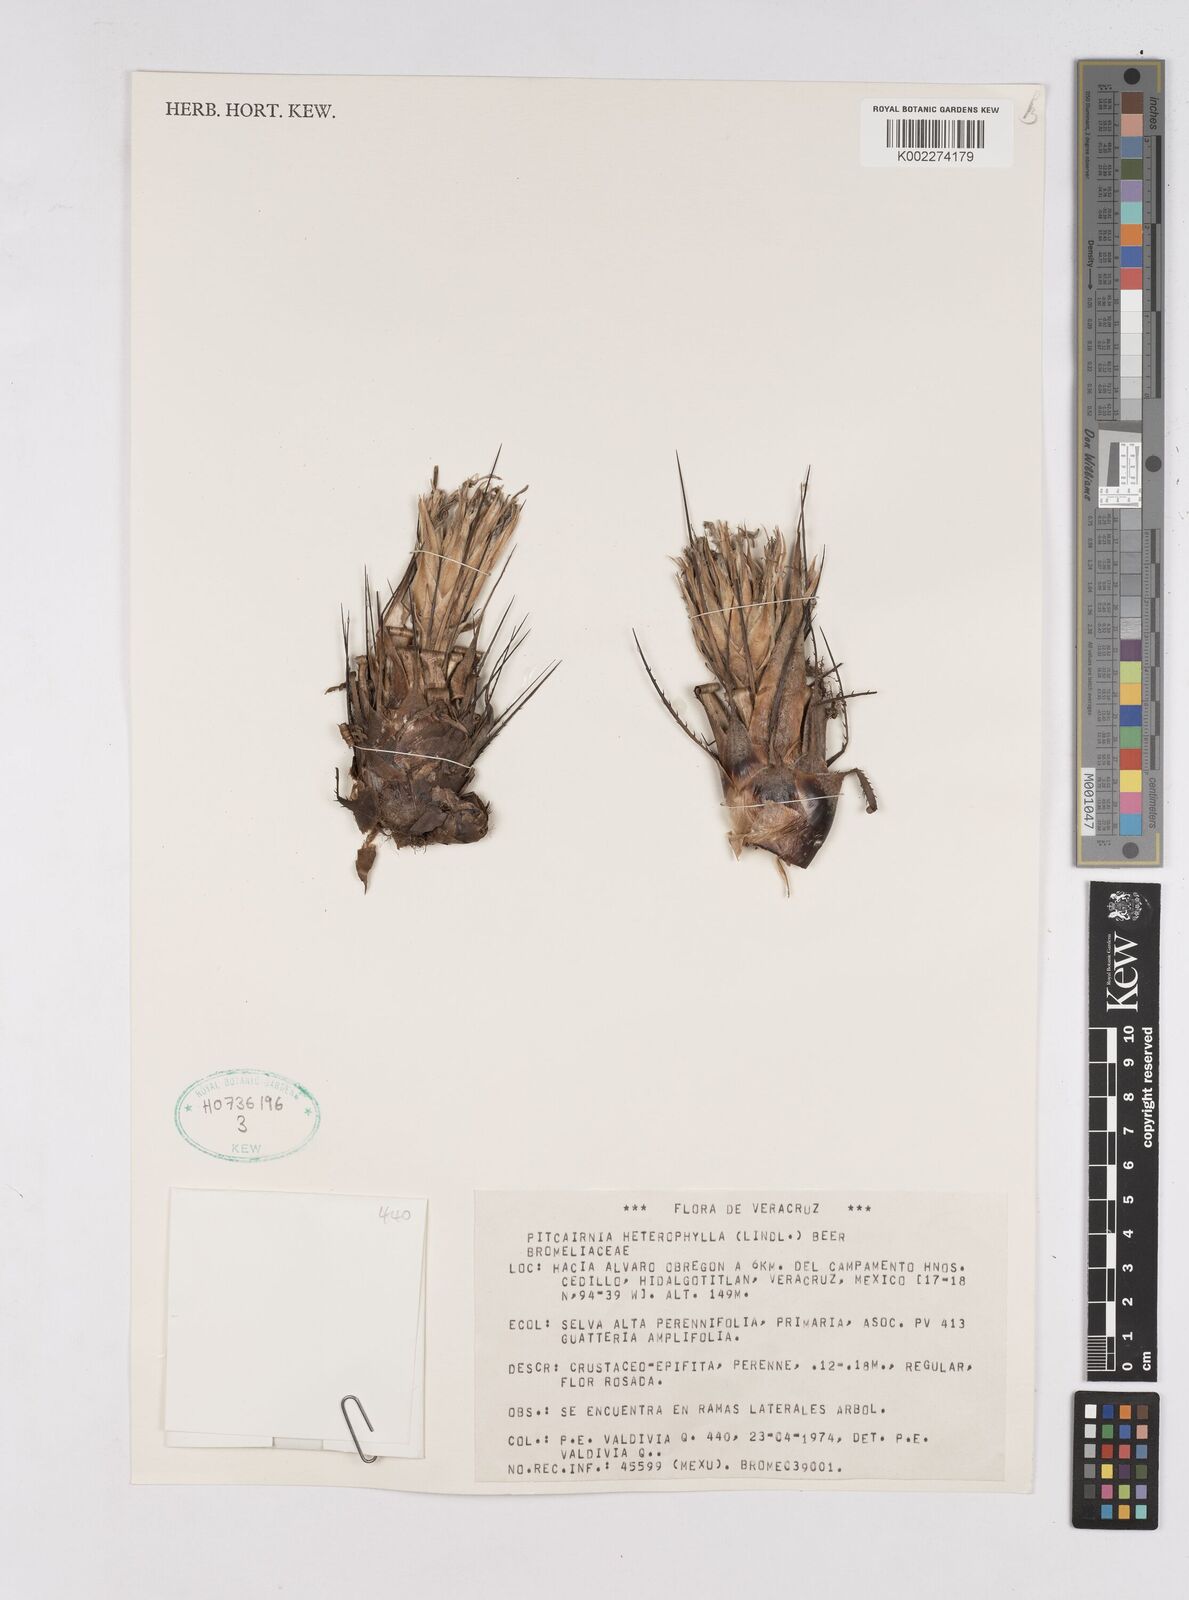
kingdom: Plantae
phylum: Tracheophyta
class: Liliopsida
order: Poales
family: Bromeliaceae
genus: Pitcairnia
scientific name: Pitcairnia heterophylla
